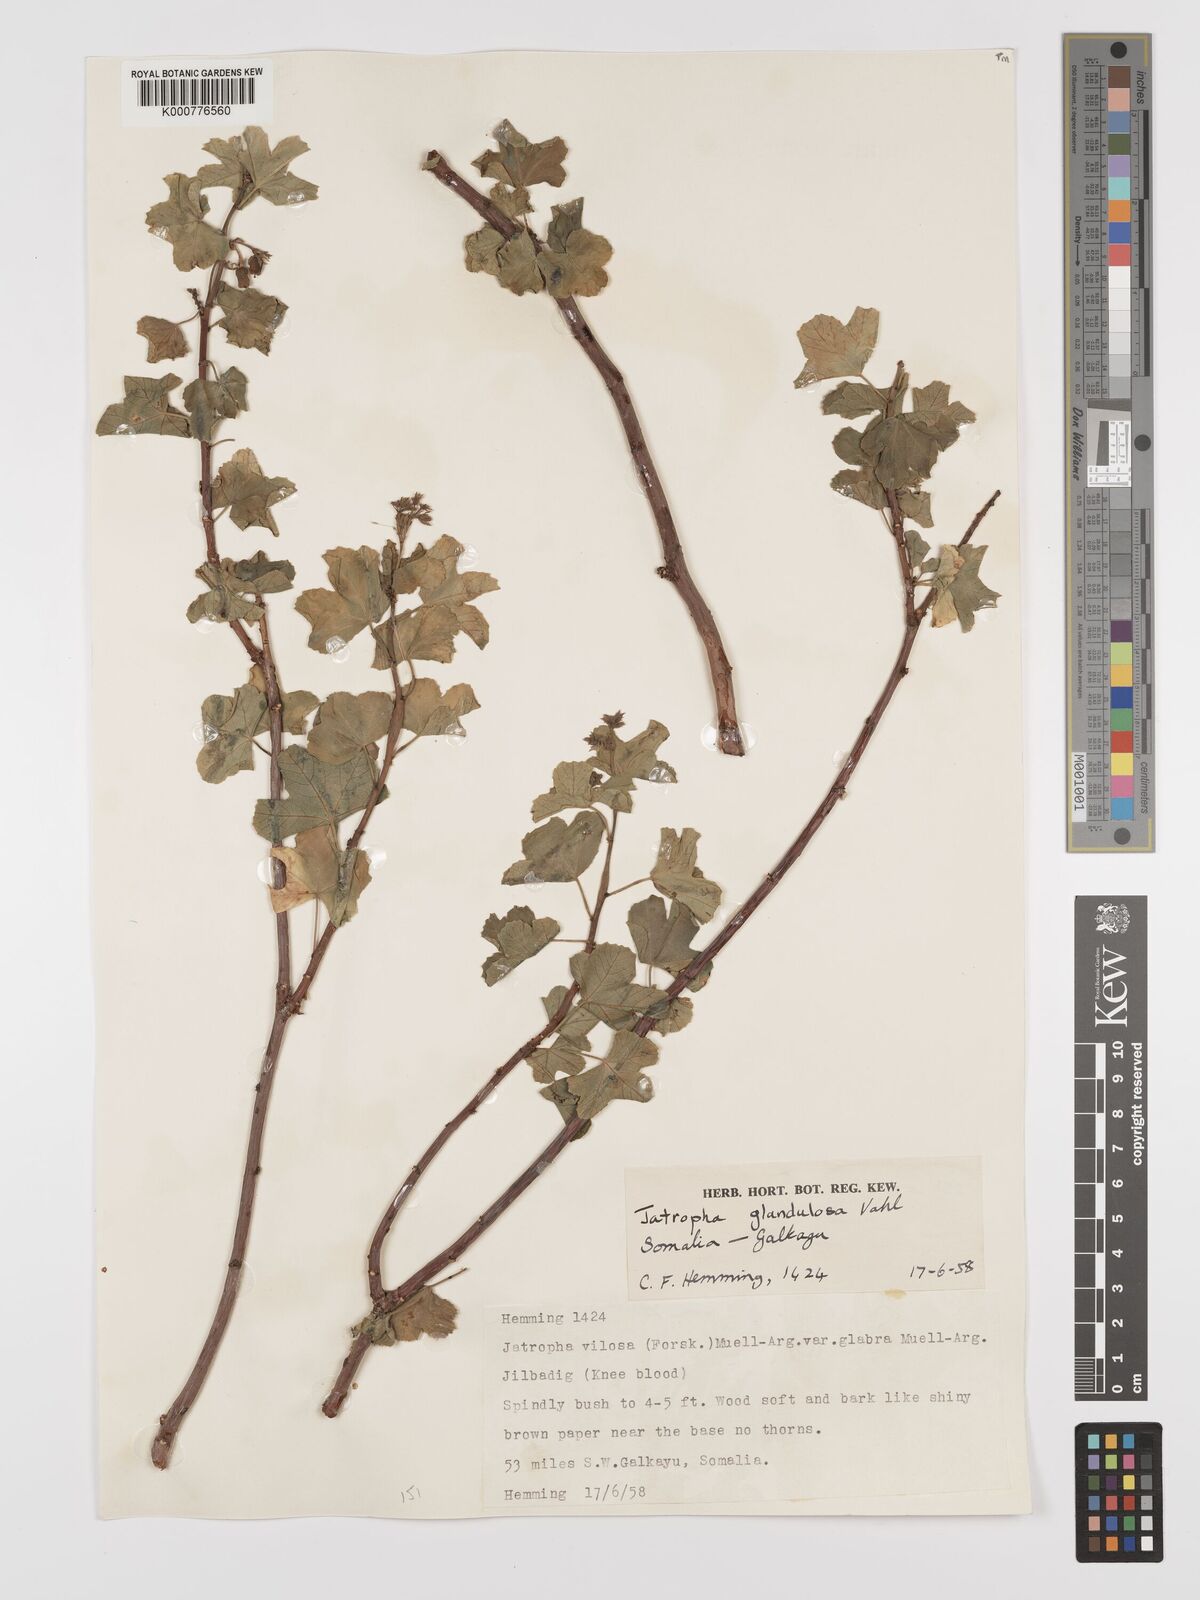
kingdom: Plantae
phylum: Tracheophyta
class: Magnoliopsida
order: Malpighiales
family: Euphorbiaceae
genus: Jatropha
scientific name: Jatropha pelargoniifolia
